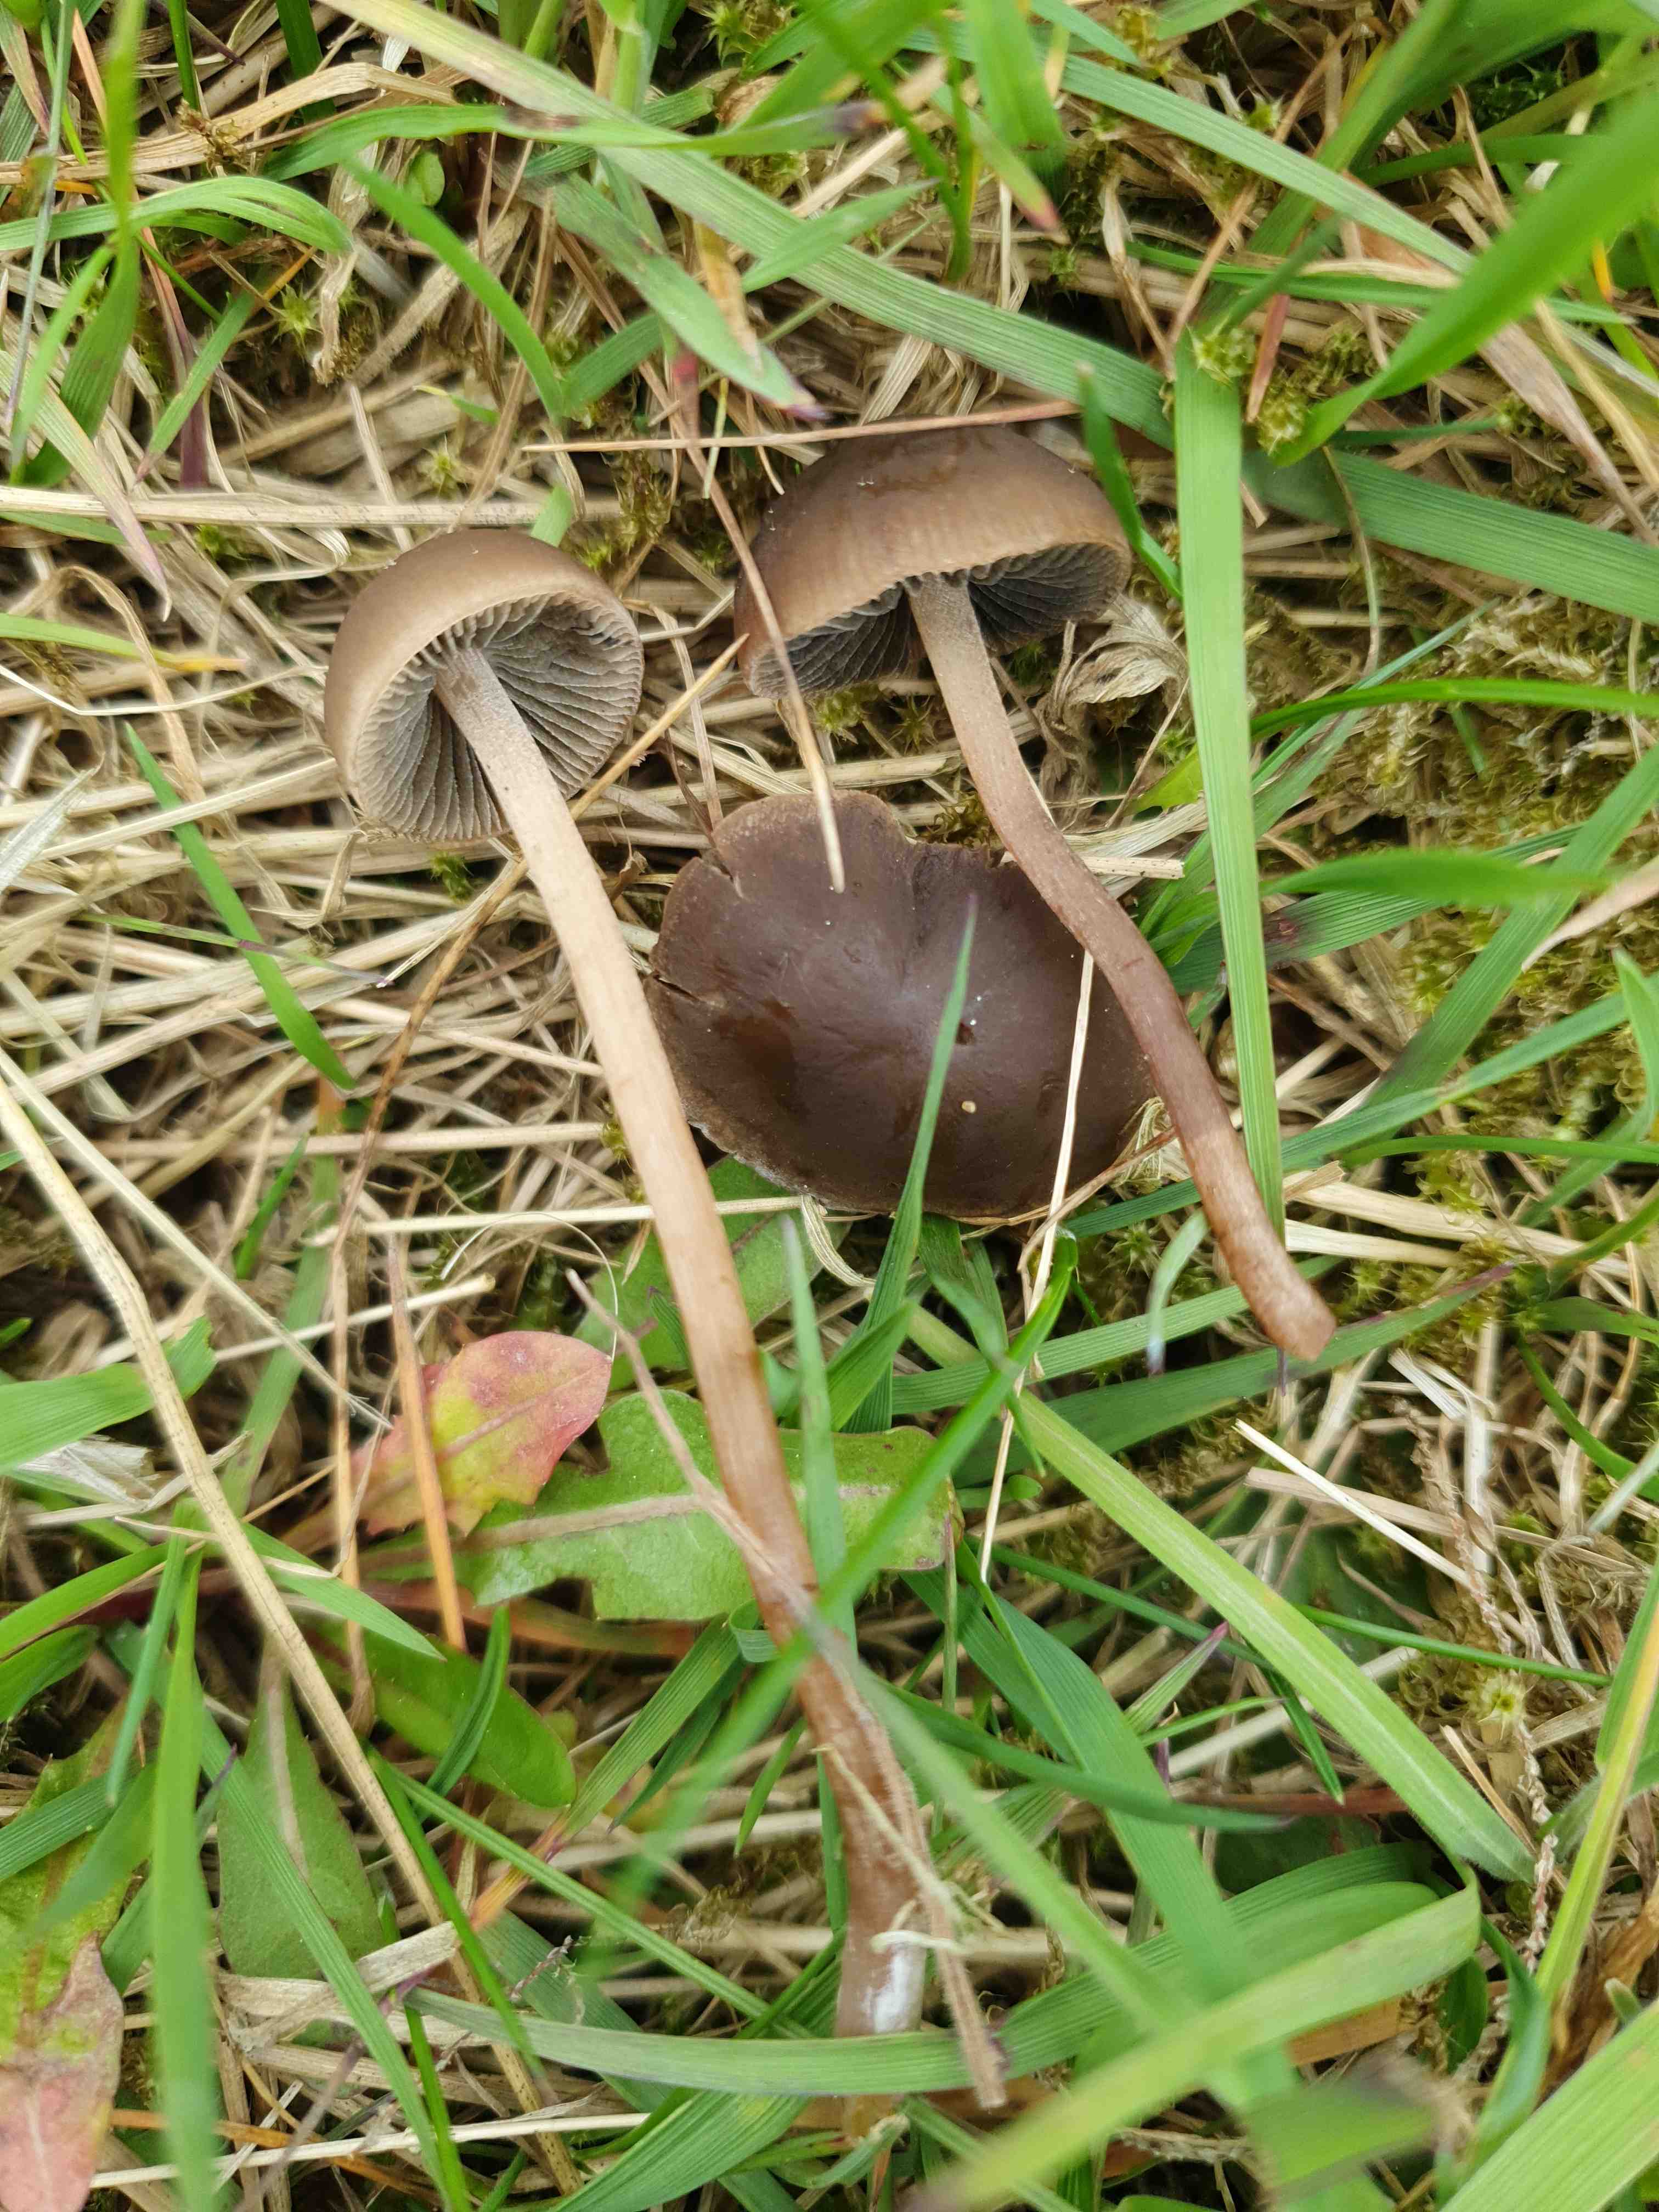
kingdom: Fungi
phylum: Basidiomycota
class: Agaricomycetes
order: Agaricales
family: Bolbitiaceae
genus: Panaeolus
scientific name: Panaeolus fimicola
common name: tidlig glanshat
